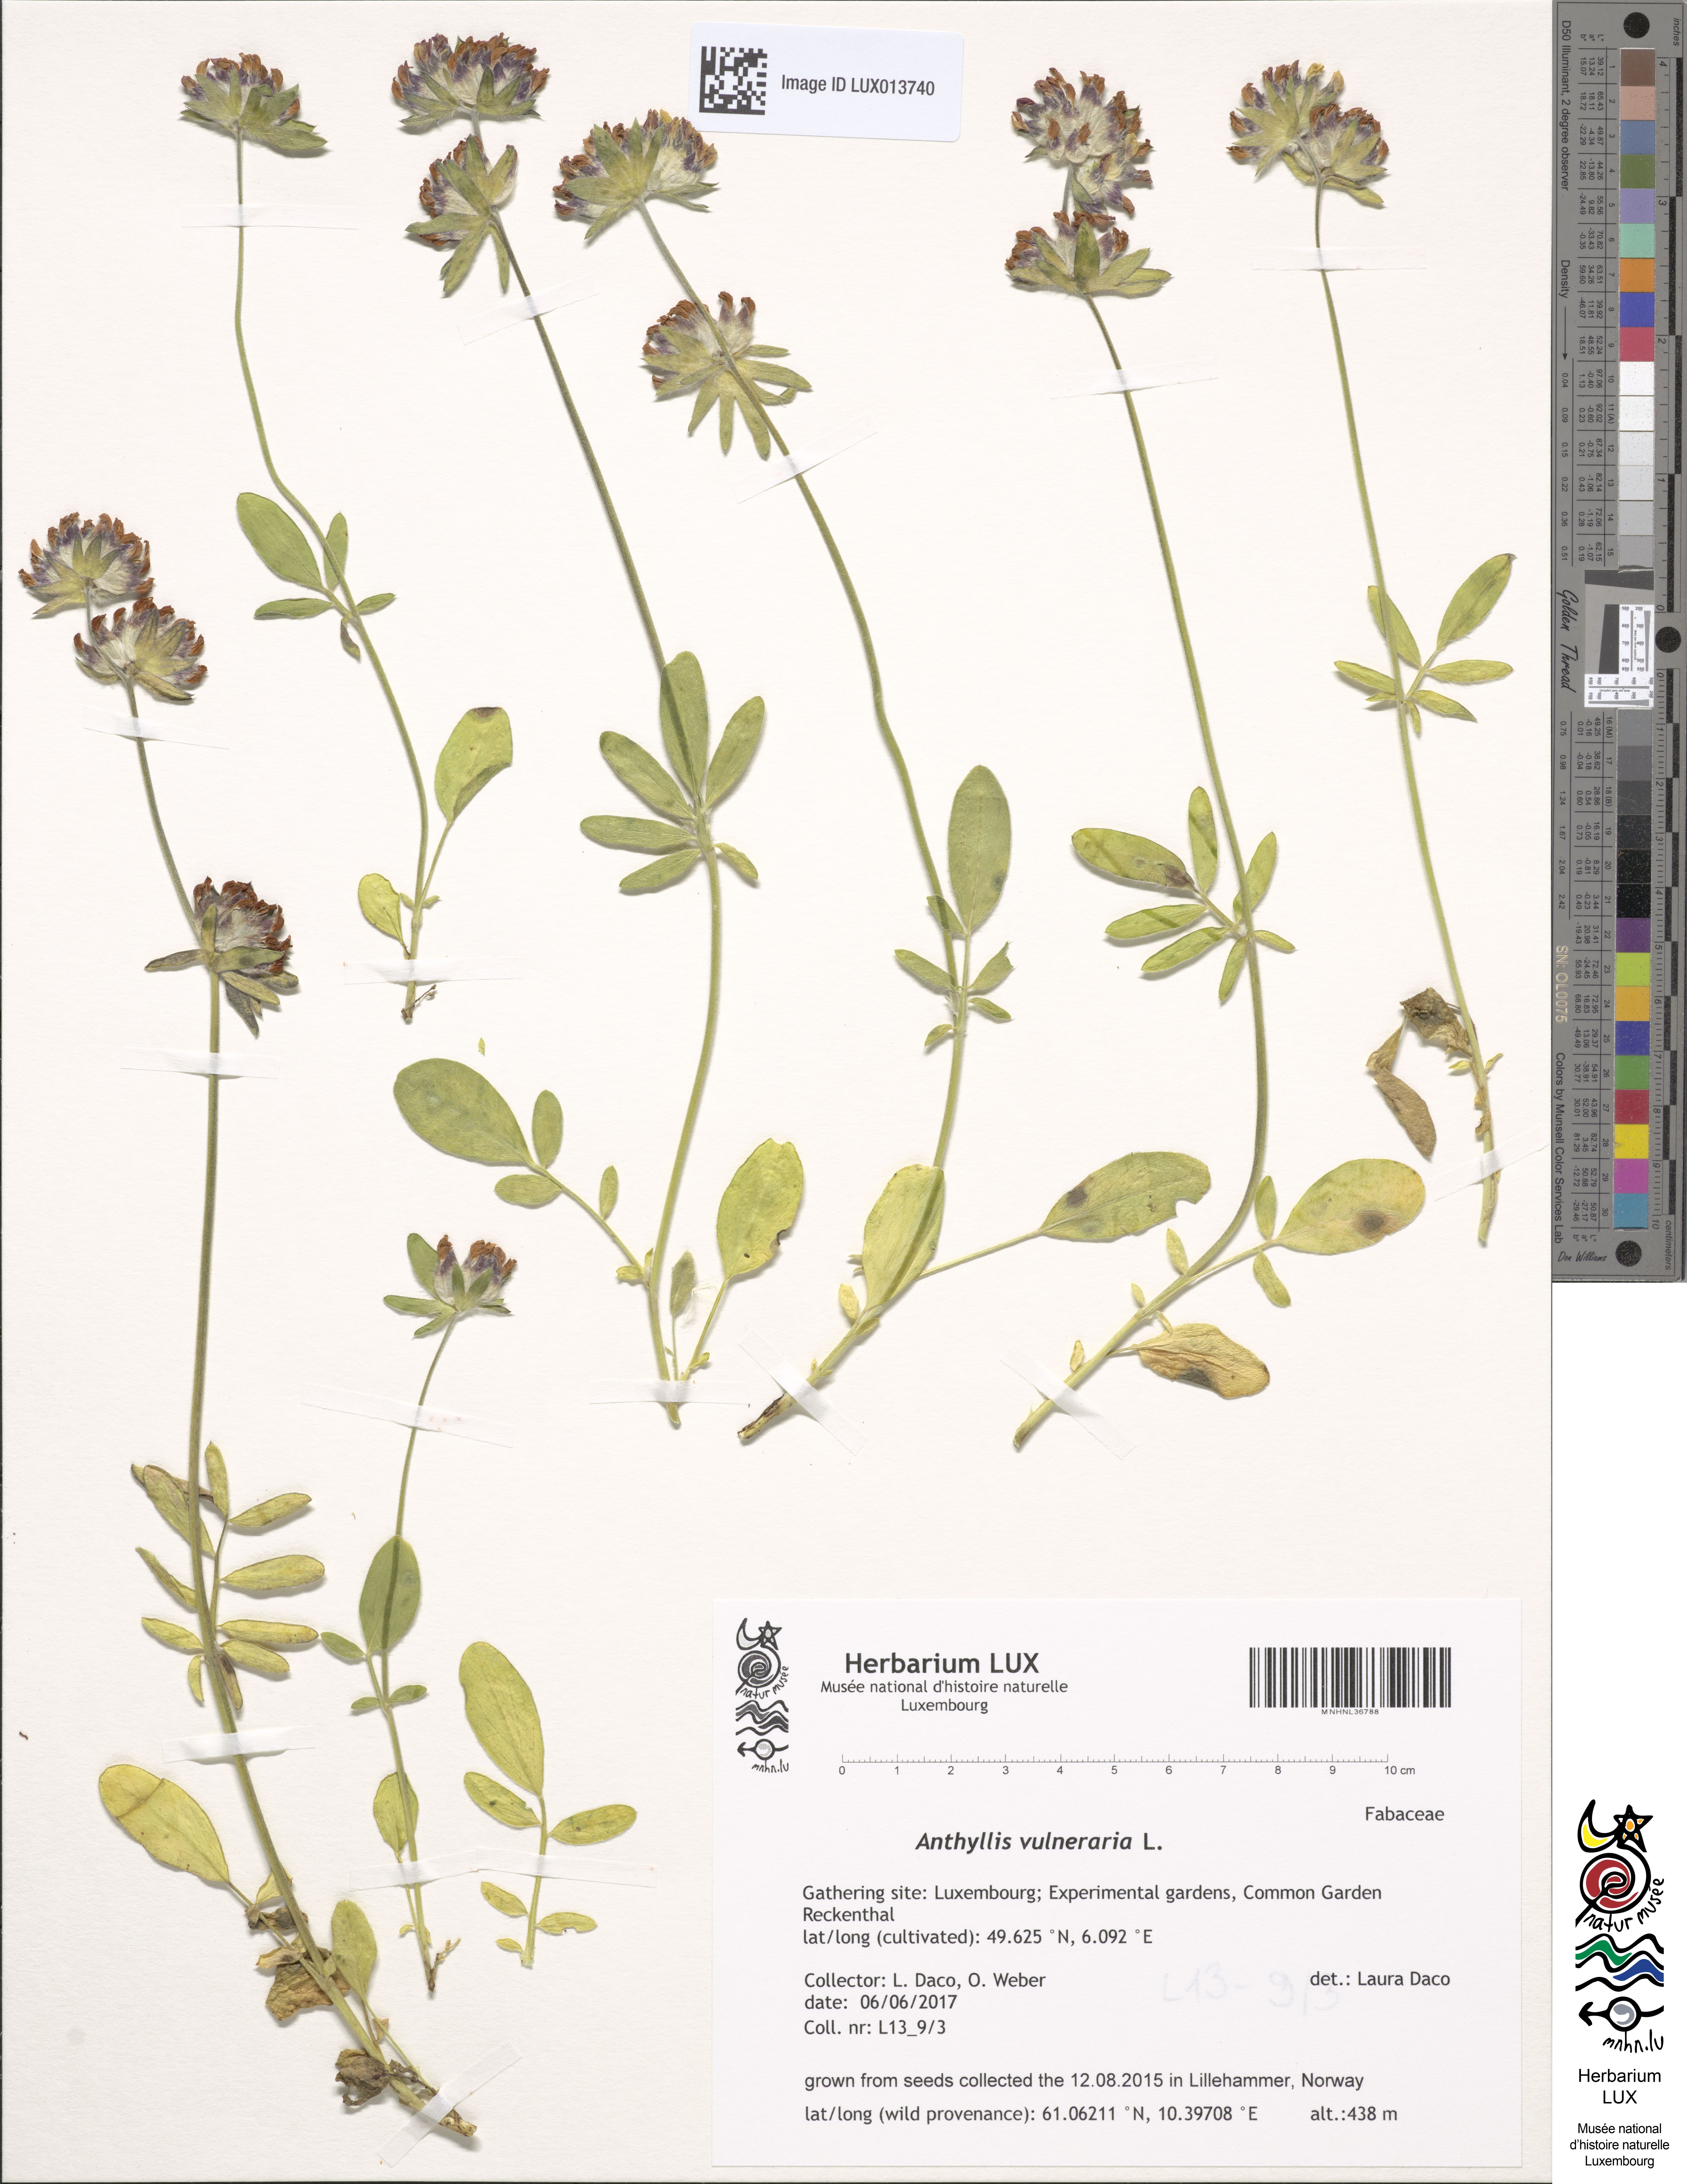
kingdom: Plantae
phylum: Tracheophyta
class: Magnoliopsida
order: Fabales
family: Fabaceae
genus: Anthyllis
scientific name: Anthyllis vulneraria
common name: Kidney vetch
